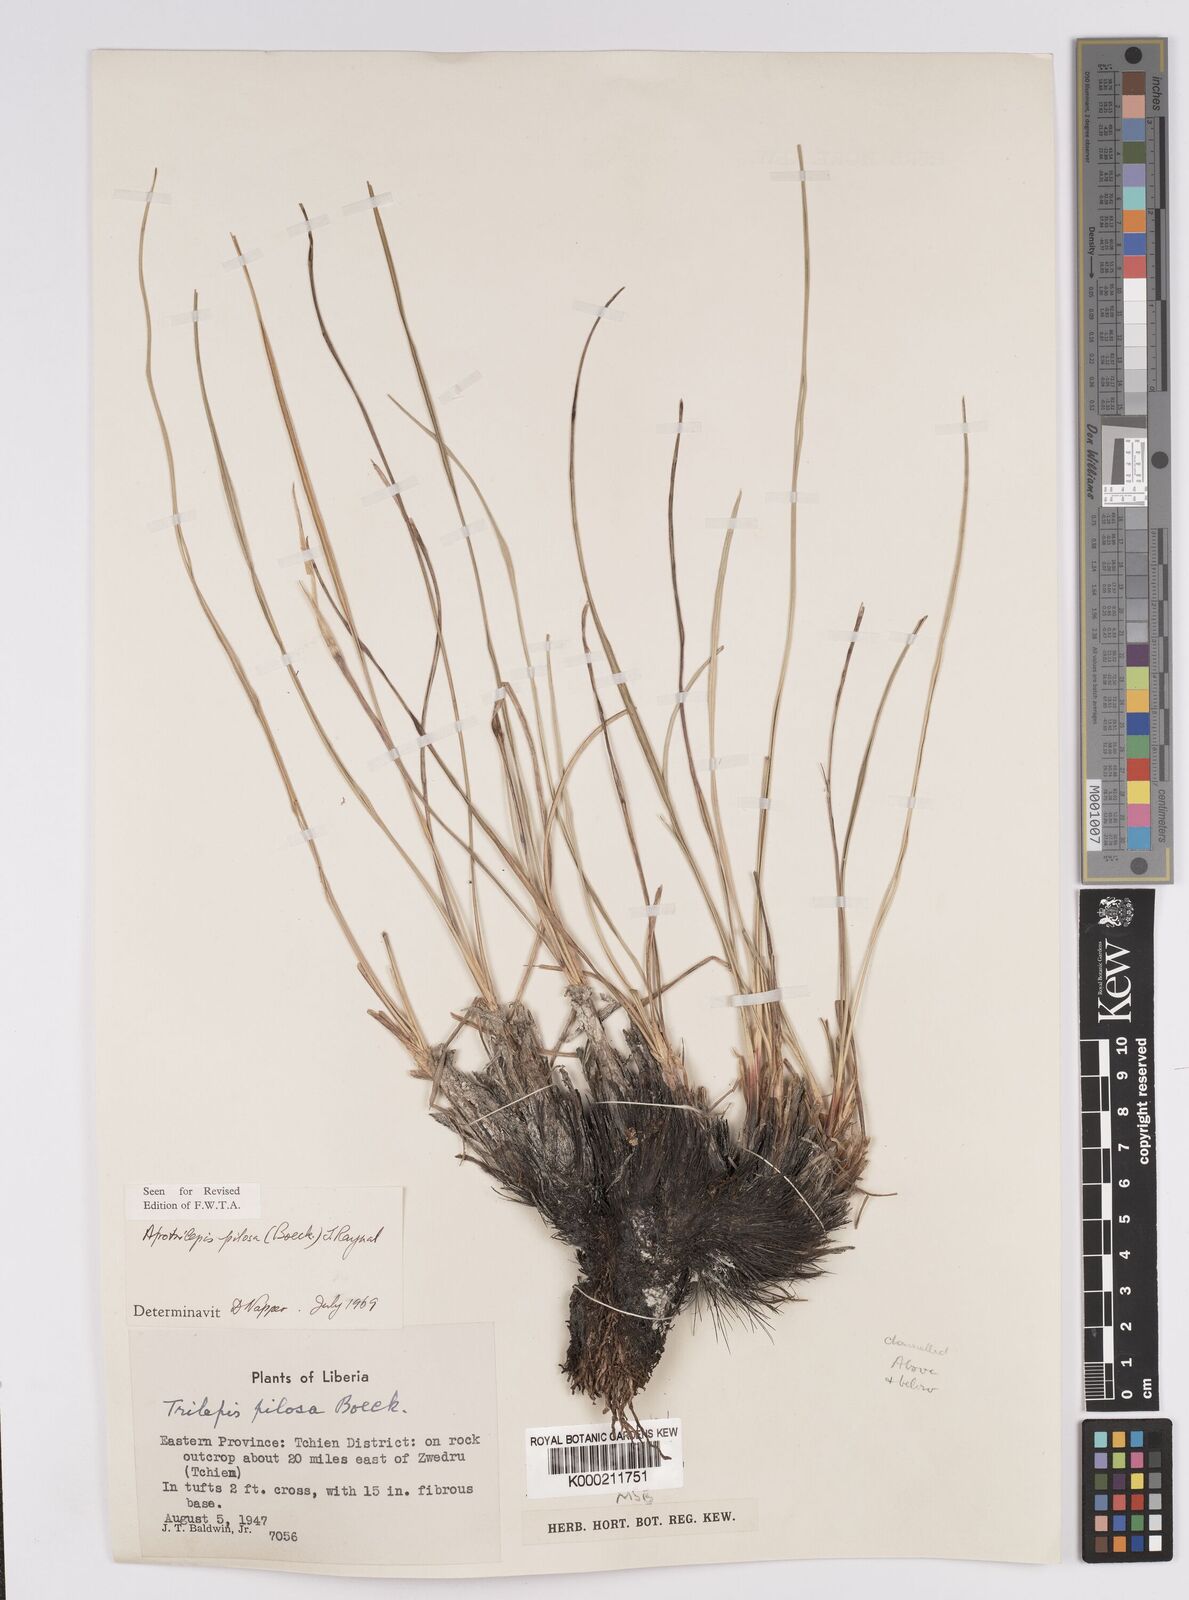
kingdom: Plantae
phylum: Tracheophyta
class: Liliopsida
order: Poales
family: Cyperaceae
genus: Afrotrilepis
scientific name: Afrotrilepis pilosa
